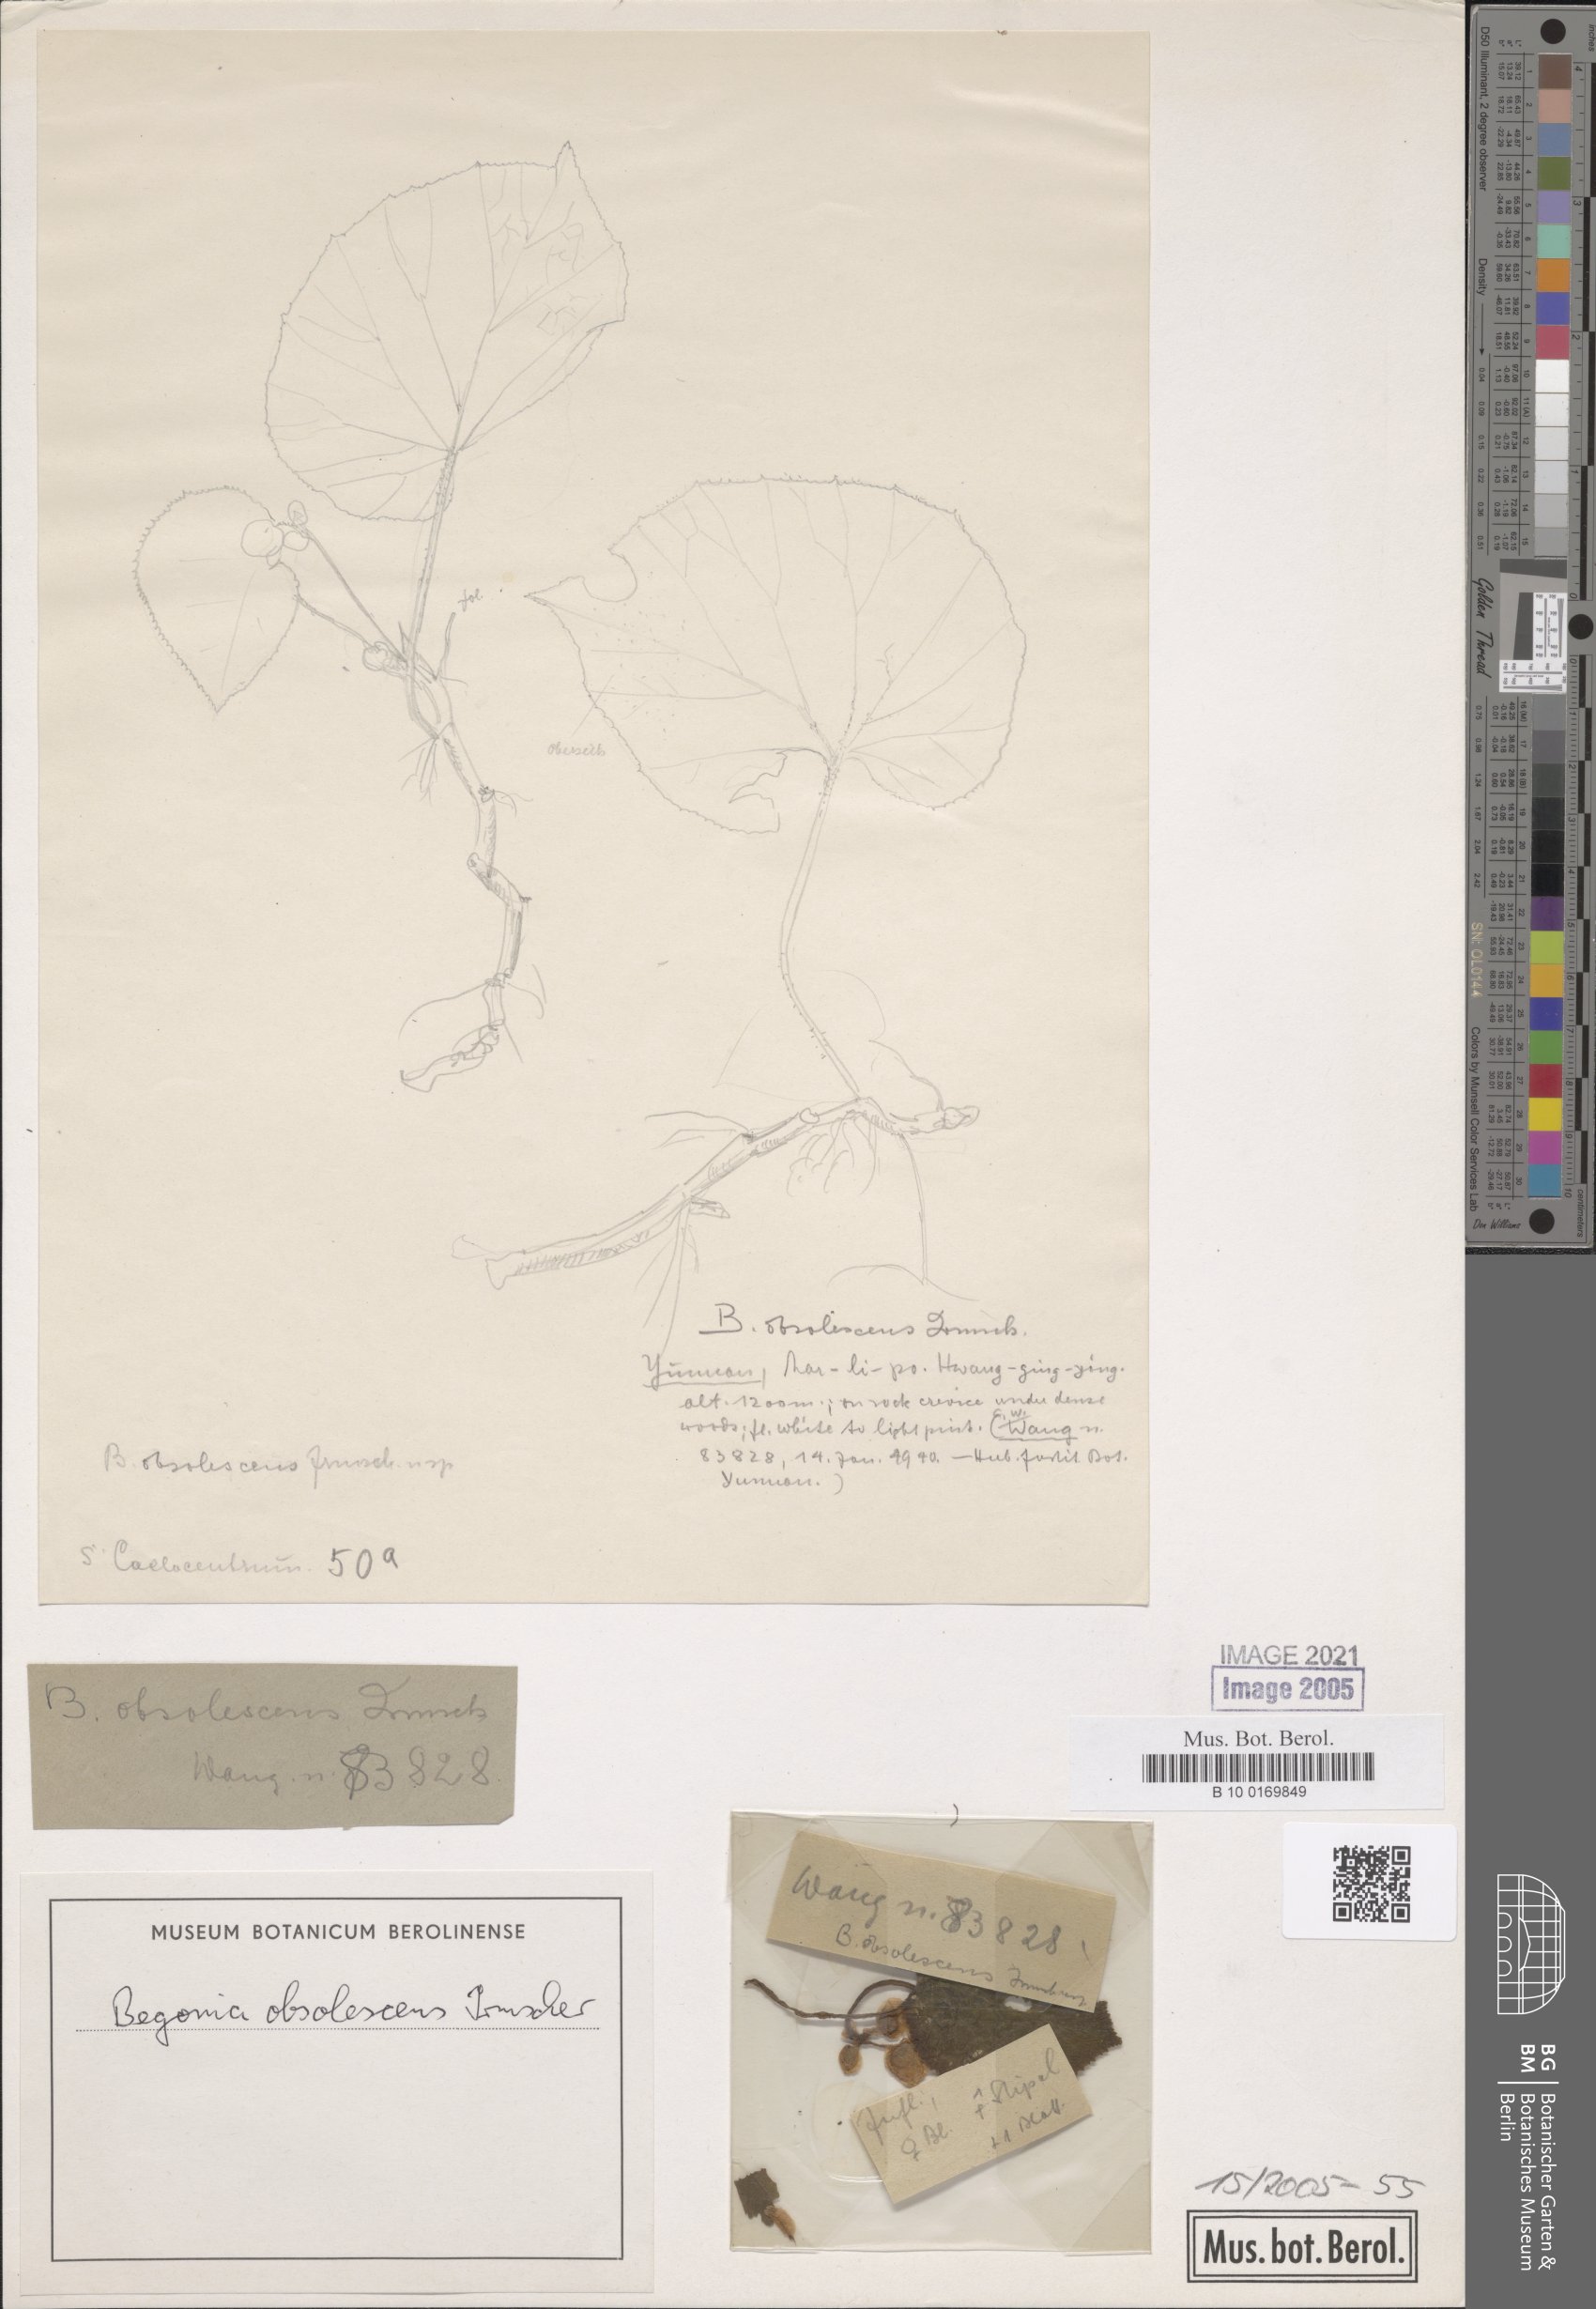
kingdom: Plantae
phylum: Tracheophyta
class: Magnoliopsida
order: Cucurbitales
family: Begoniaceae
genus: Begonia
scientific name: Begonia obsolescens
